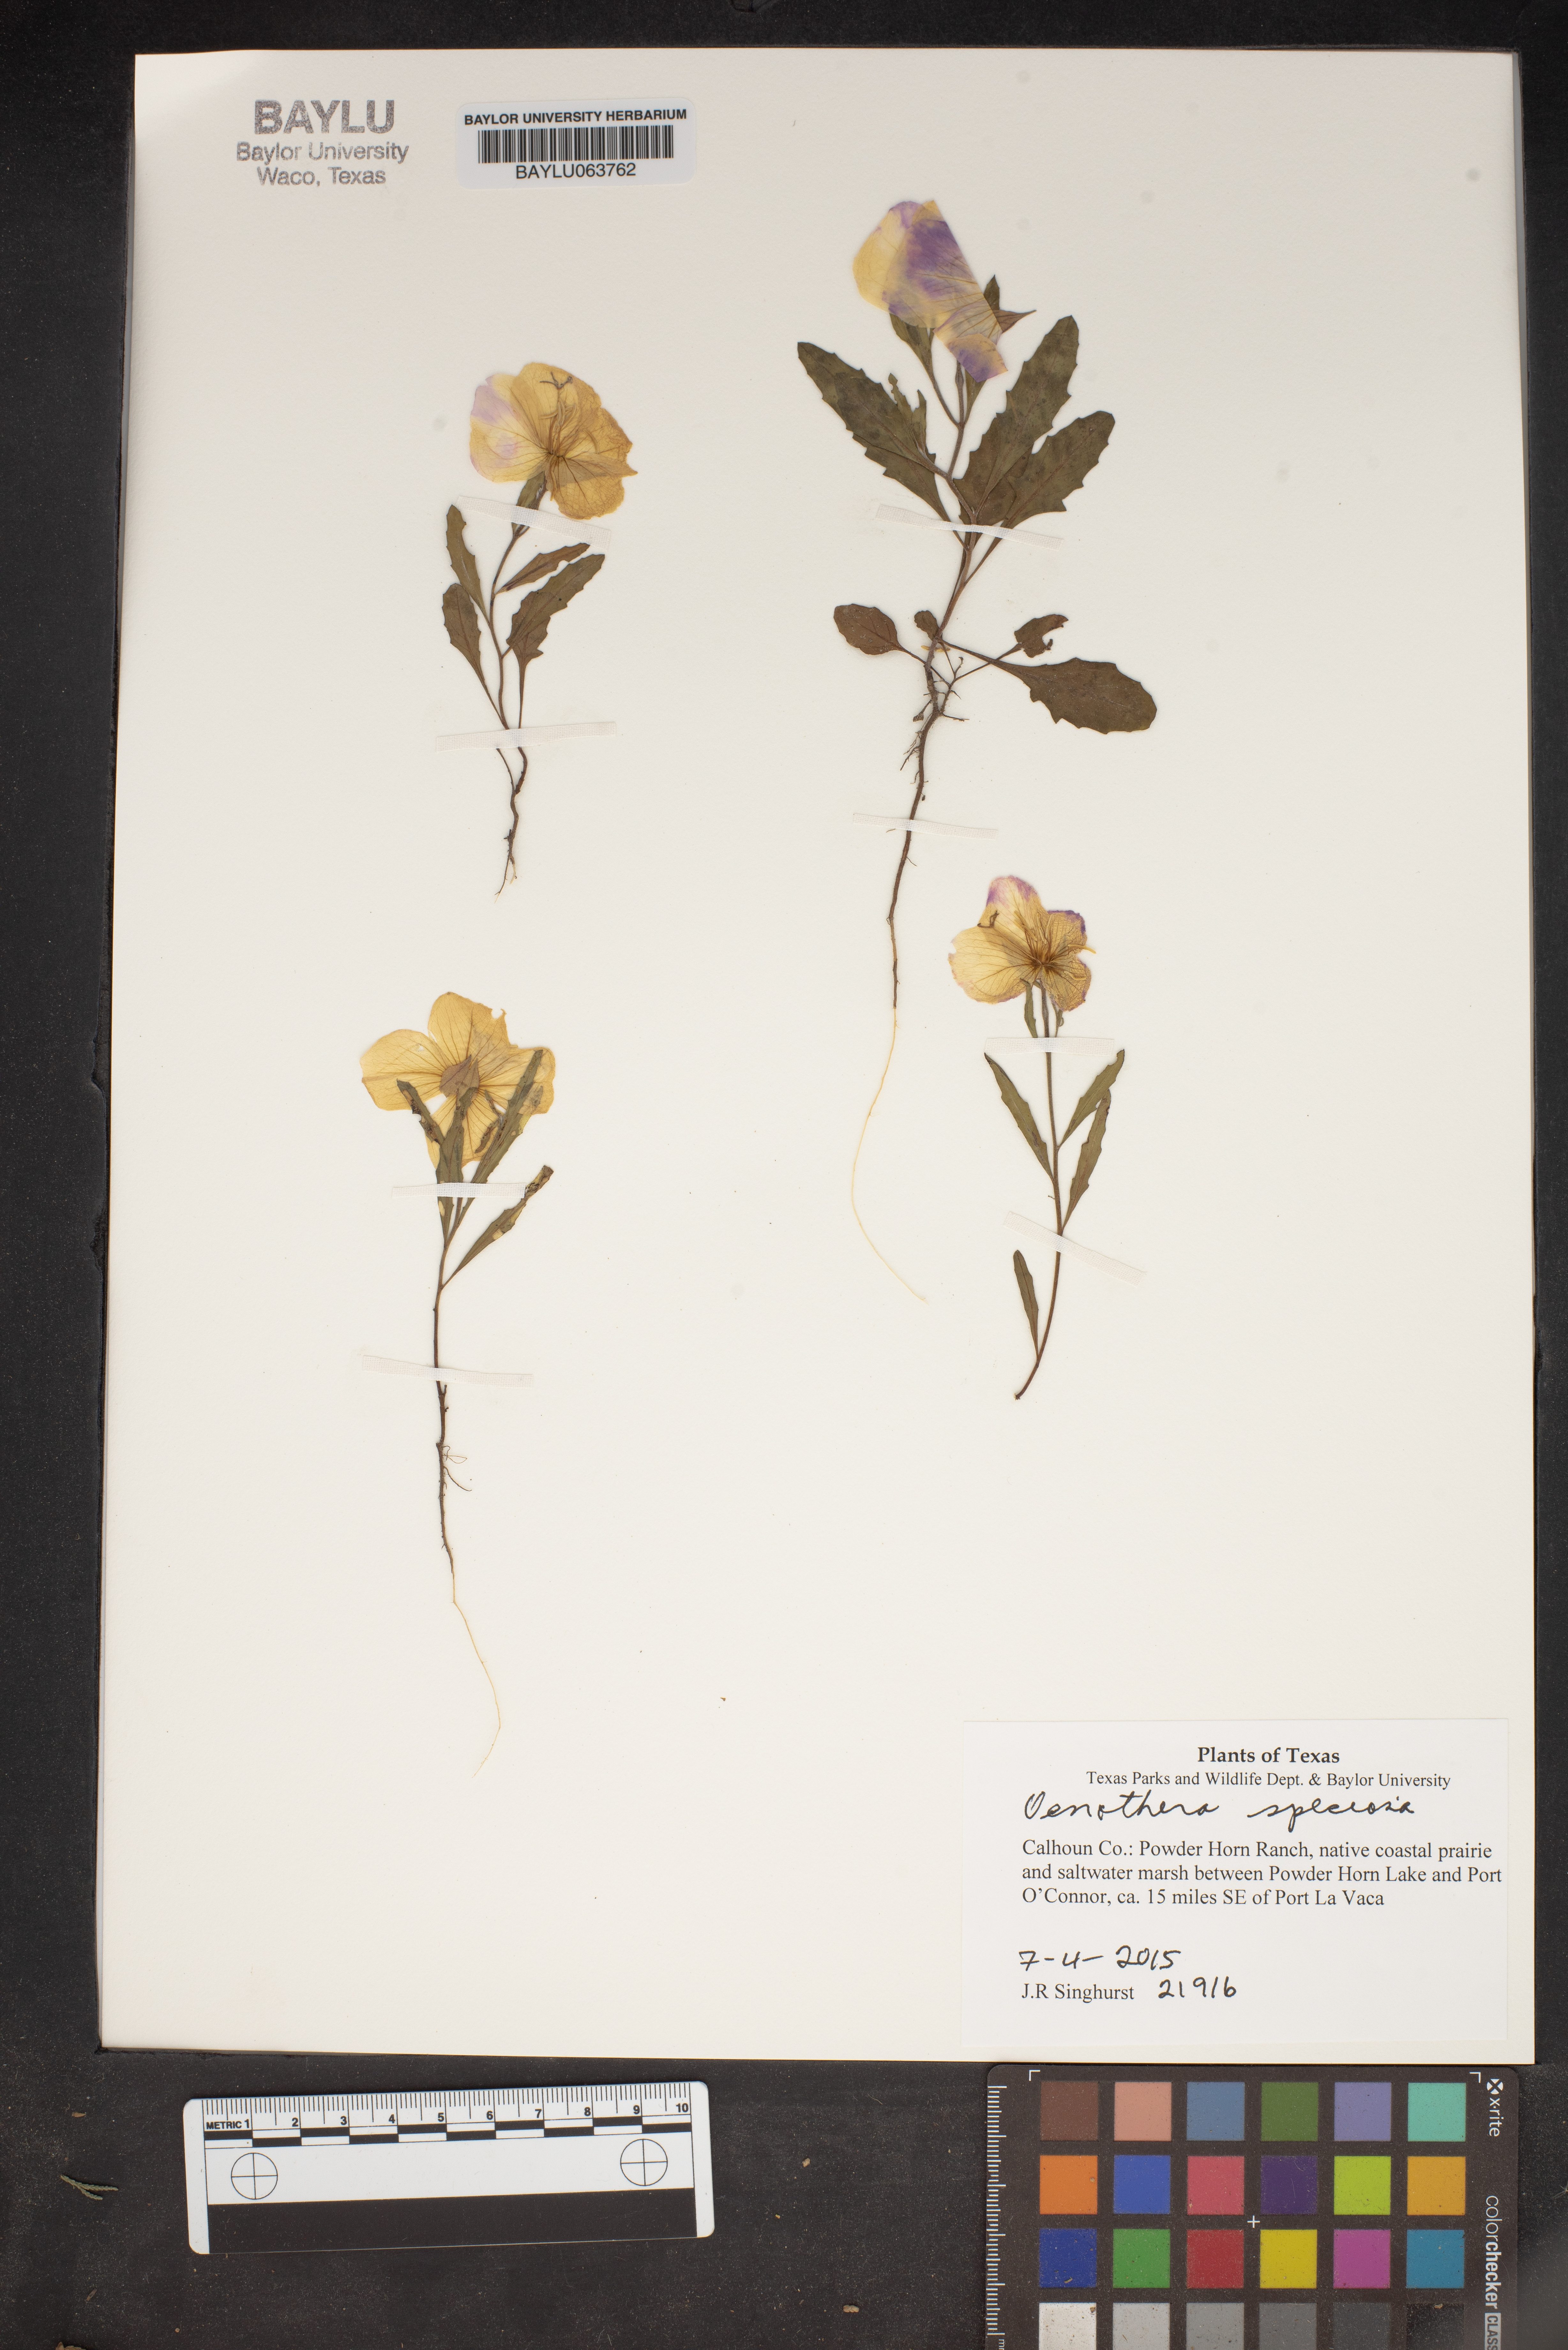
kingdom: Plantae
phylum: Tracheophyta
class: Magnoliopsida
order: Myrtales
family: Onagraceae
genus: Oenothera
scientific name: Oenothera speciosa
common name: White evening-primrose
